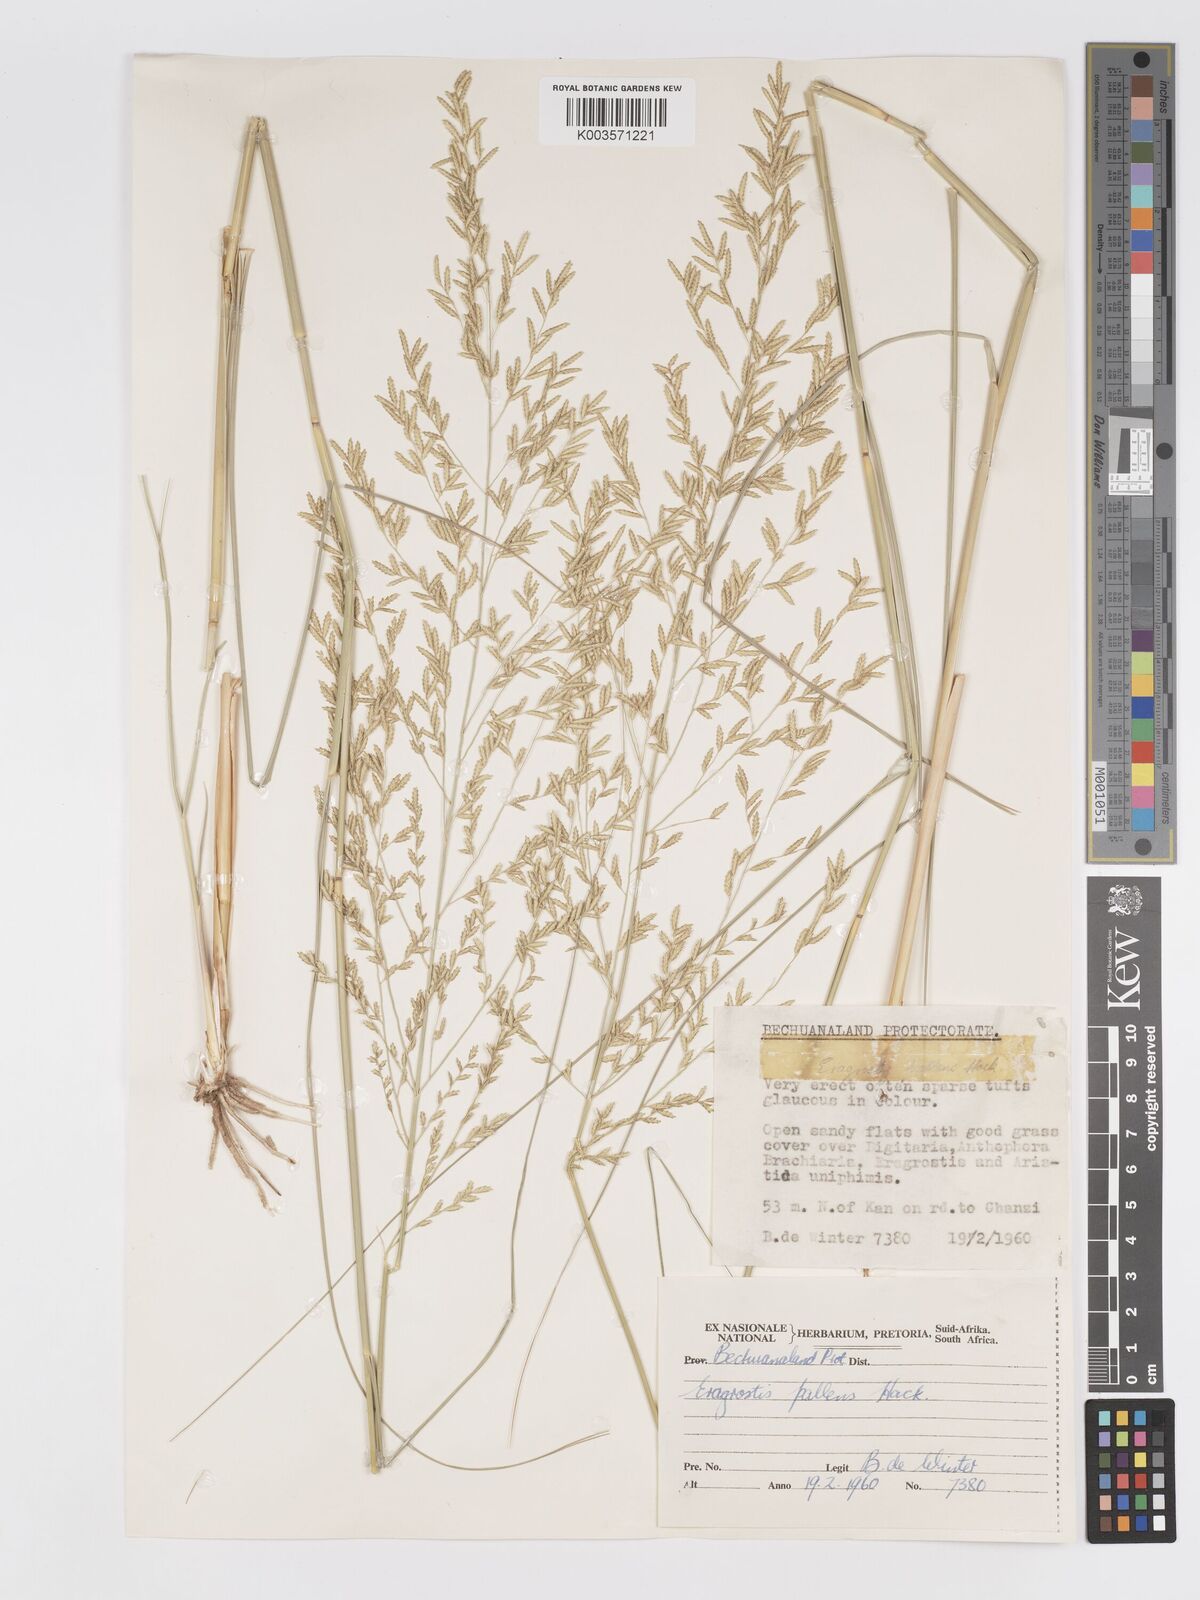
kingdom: Plantae
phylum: Tracheophyta
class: Liliopsida
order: Poales
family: Poaceae
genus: Eragrostis
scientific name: Eragrostis pallens
